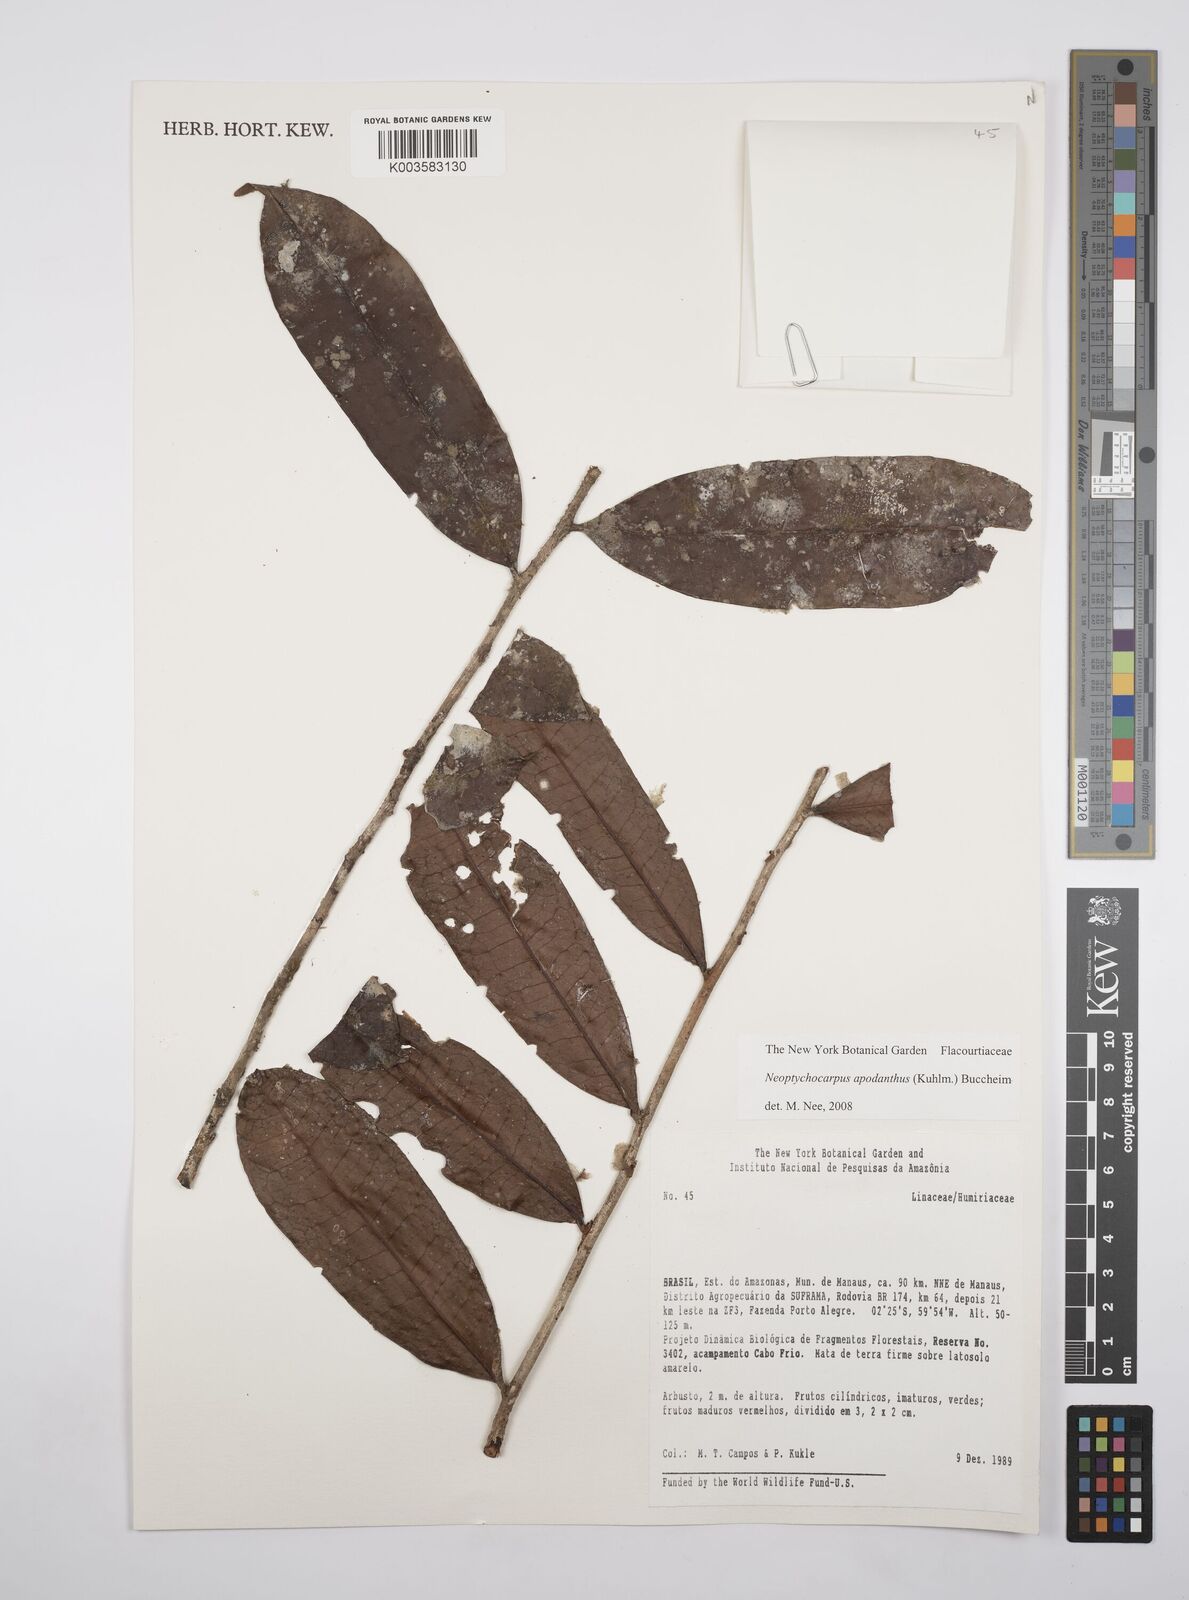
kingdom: Plantae
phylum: Tracheophyta
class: Magnoliopsida
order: Malpighiales
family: Salicaceae
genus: Casearia
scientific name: Casearia apodantha
